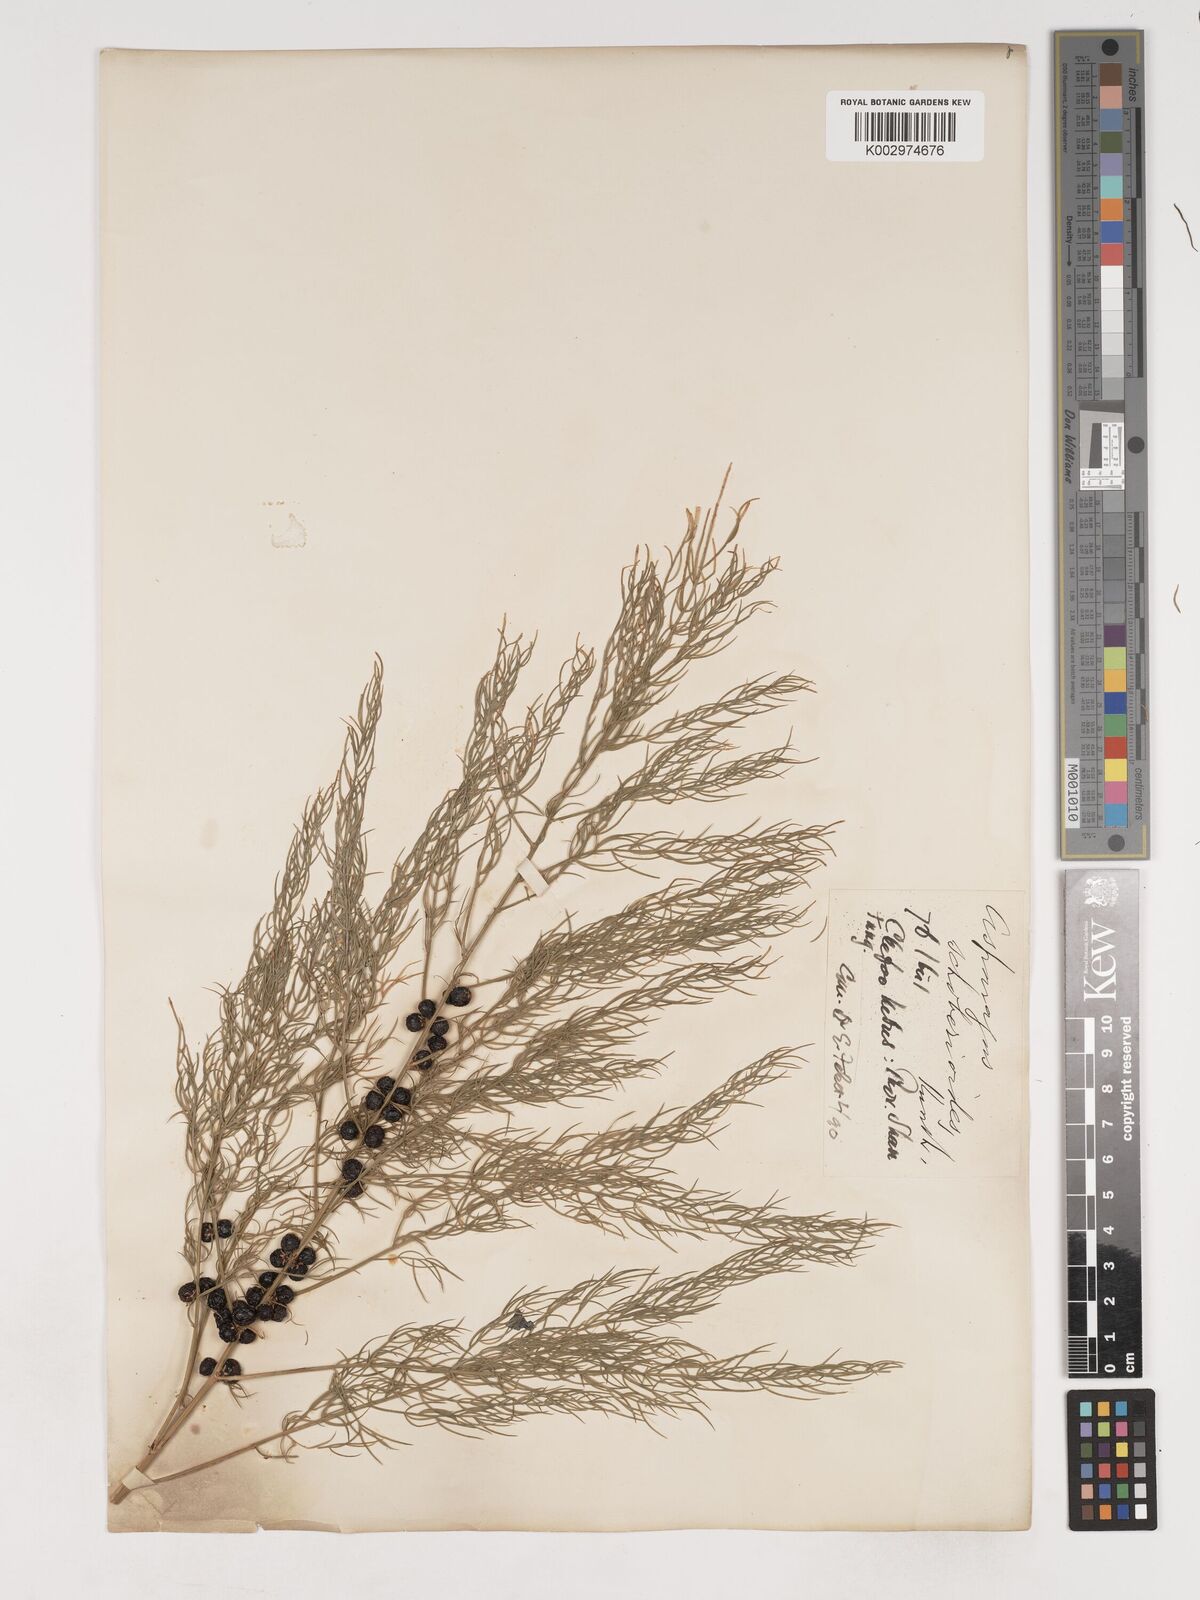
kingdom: Plantae
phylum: Tracheophyta
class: Liliopsida
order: Asparagales
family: Asparagaceae
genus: Asparagus
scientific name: Asparagus schoberioides
